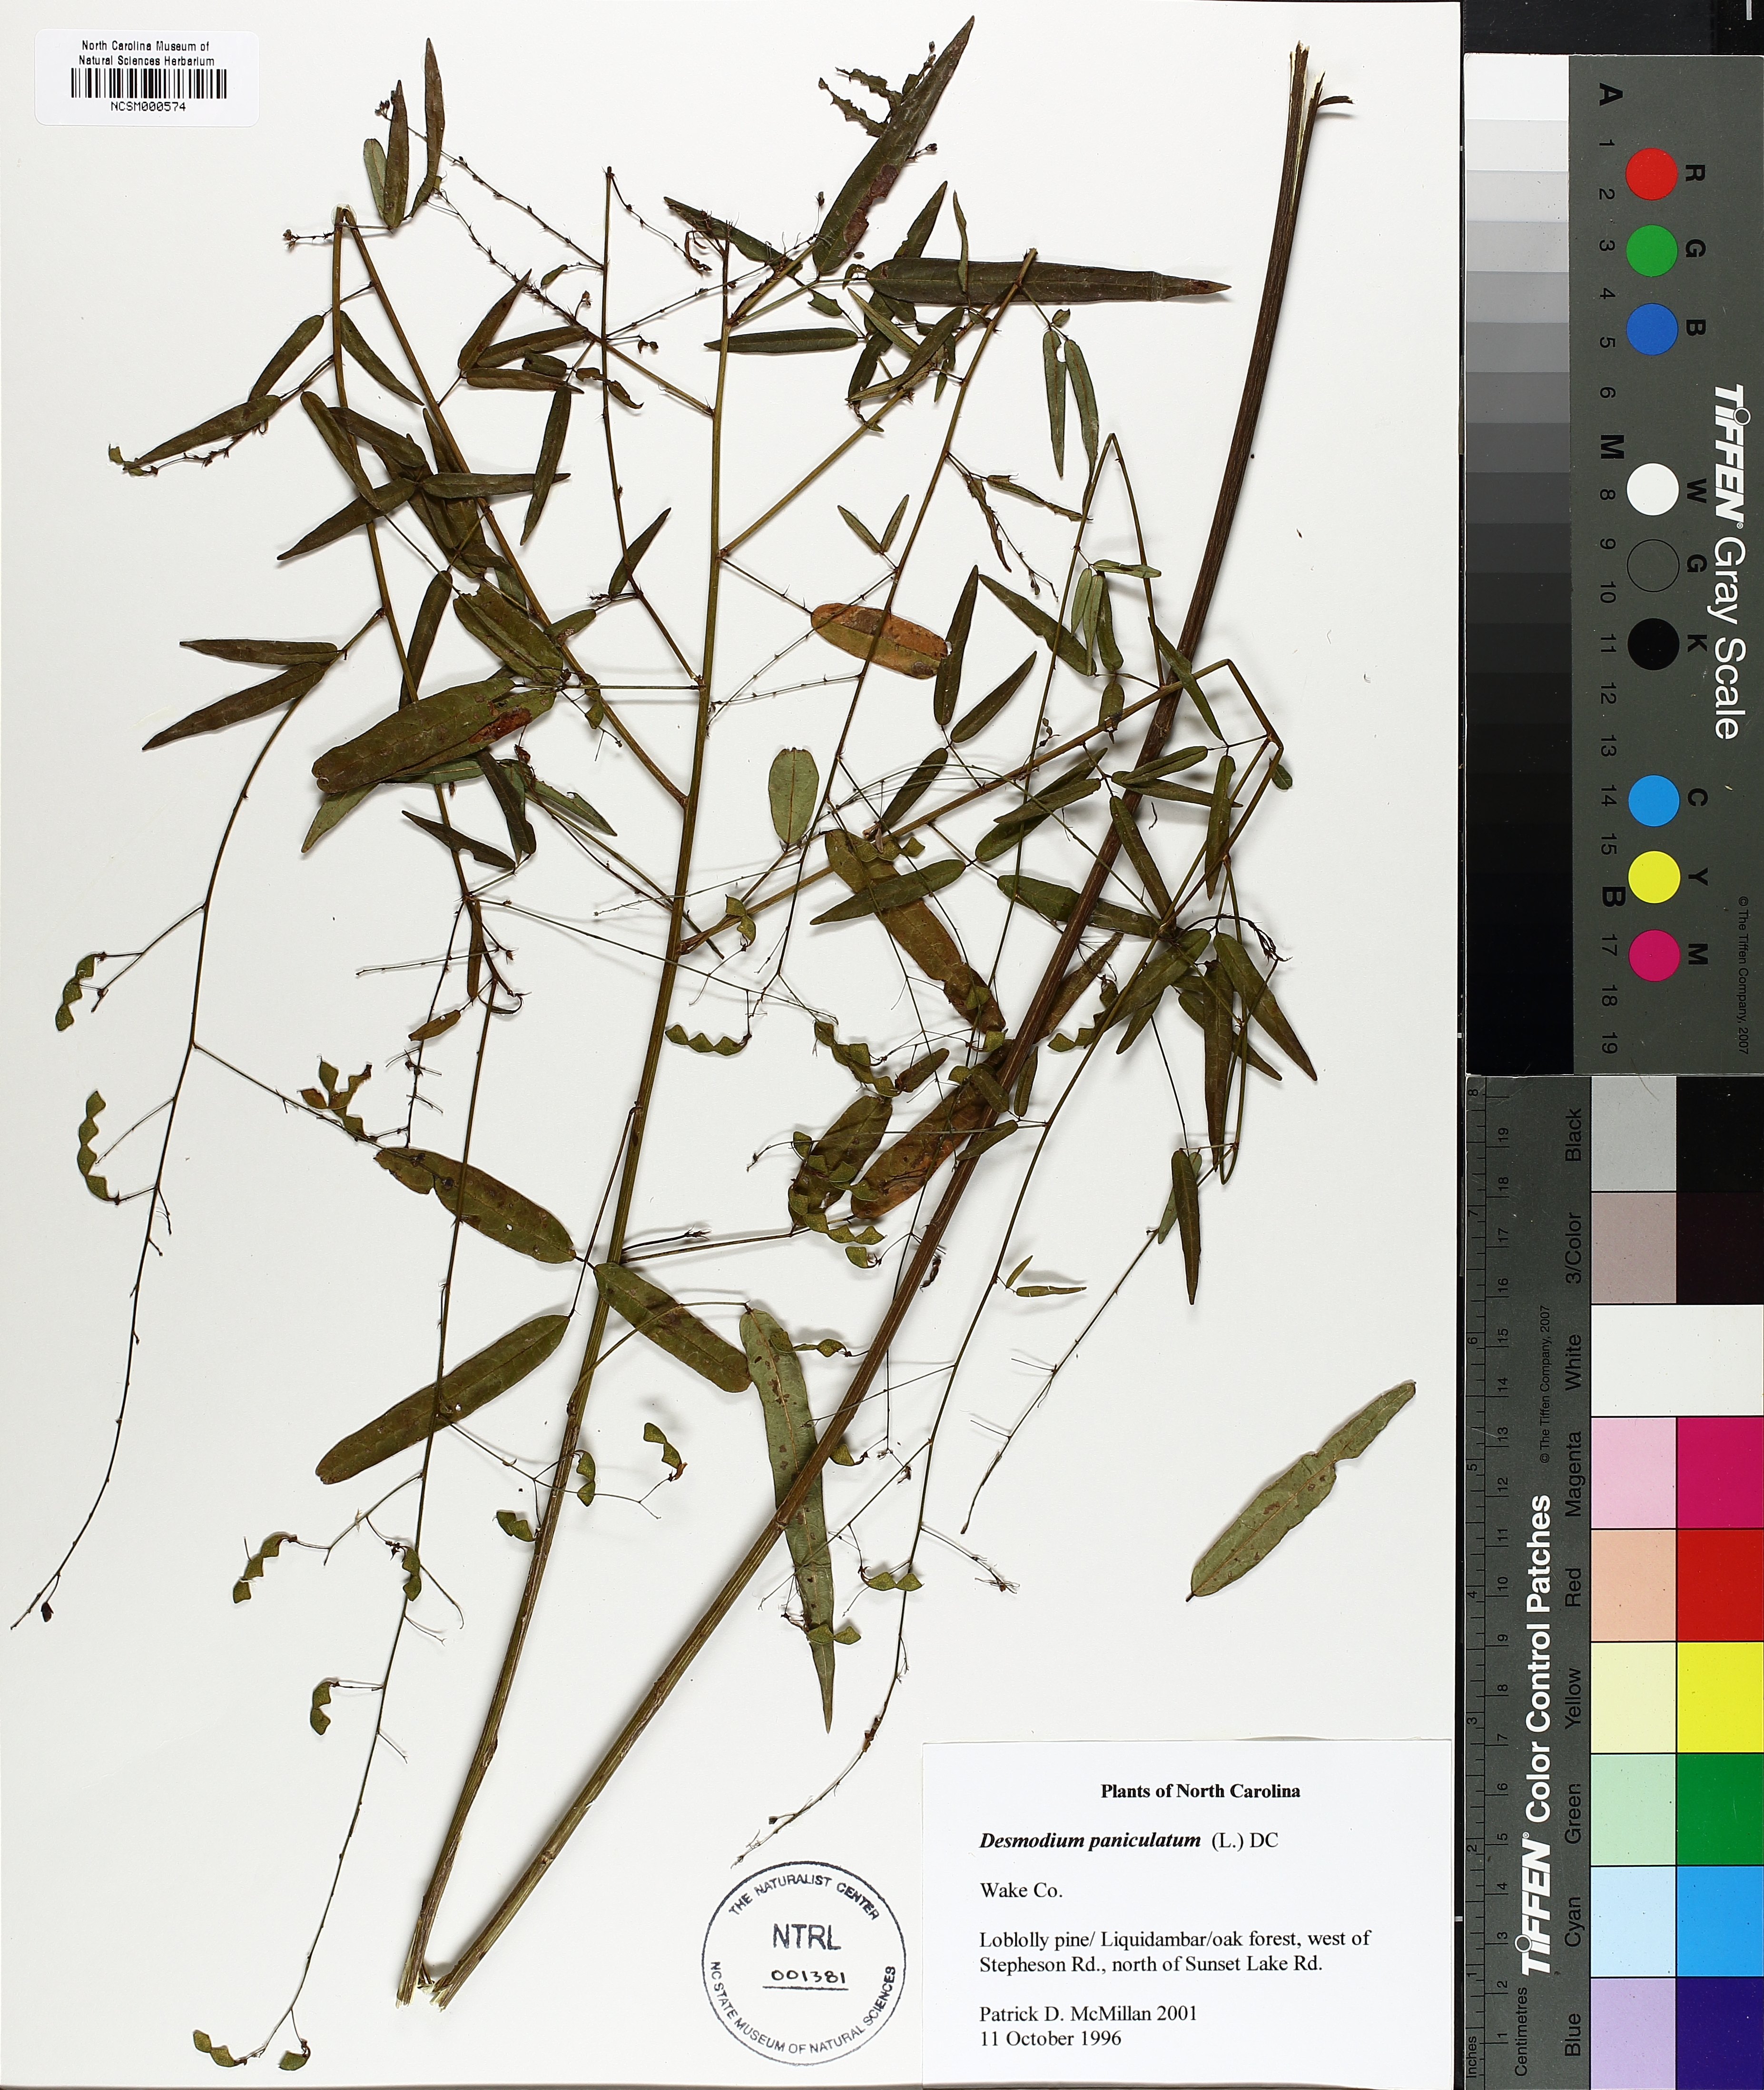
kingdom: Plantae
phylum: Tracheophyta
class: Magnoliopsida
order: Fabales
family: Fabaceae
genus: Desmodium
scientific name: Desmodium paniculatum
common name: Panicled tick-clover
